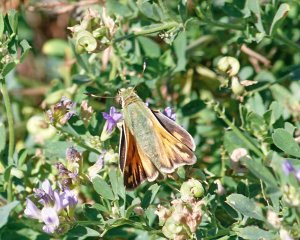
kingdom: Animalia
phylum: Arthropoda
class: Insecta
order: Lepidoptera
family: Hesperiidae
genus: Ochlodes
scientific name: Ochlodes sylvanoides
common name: Woodland Skipper
